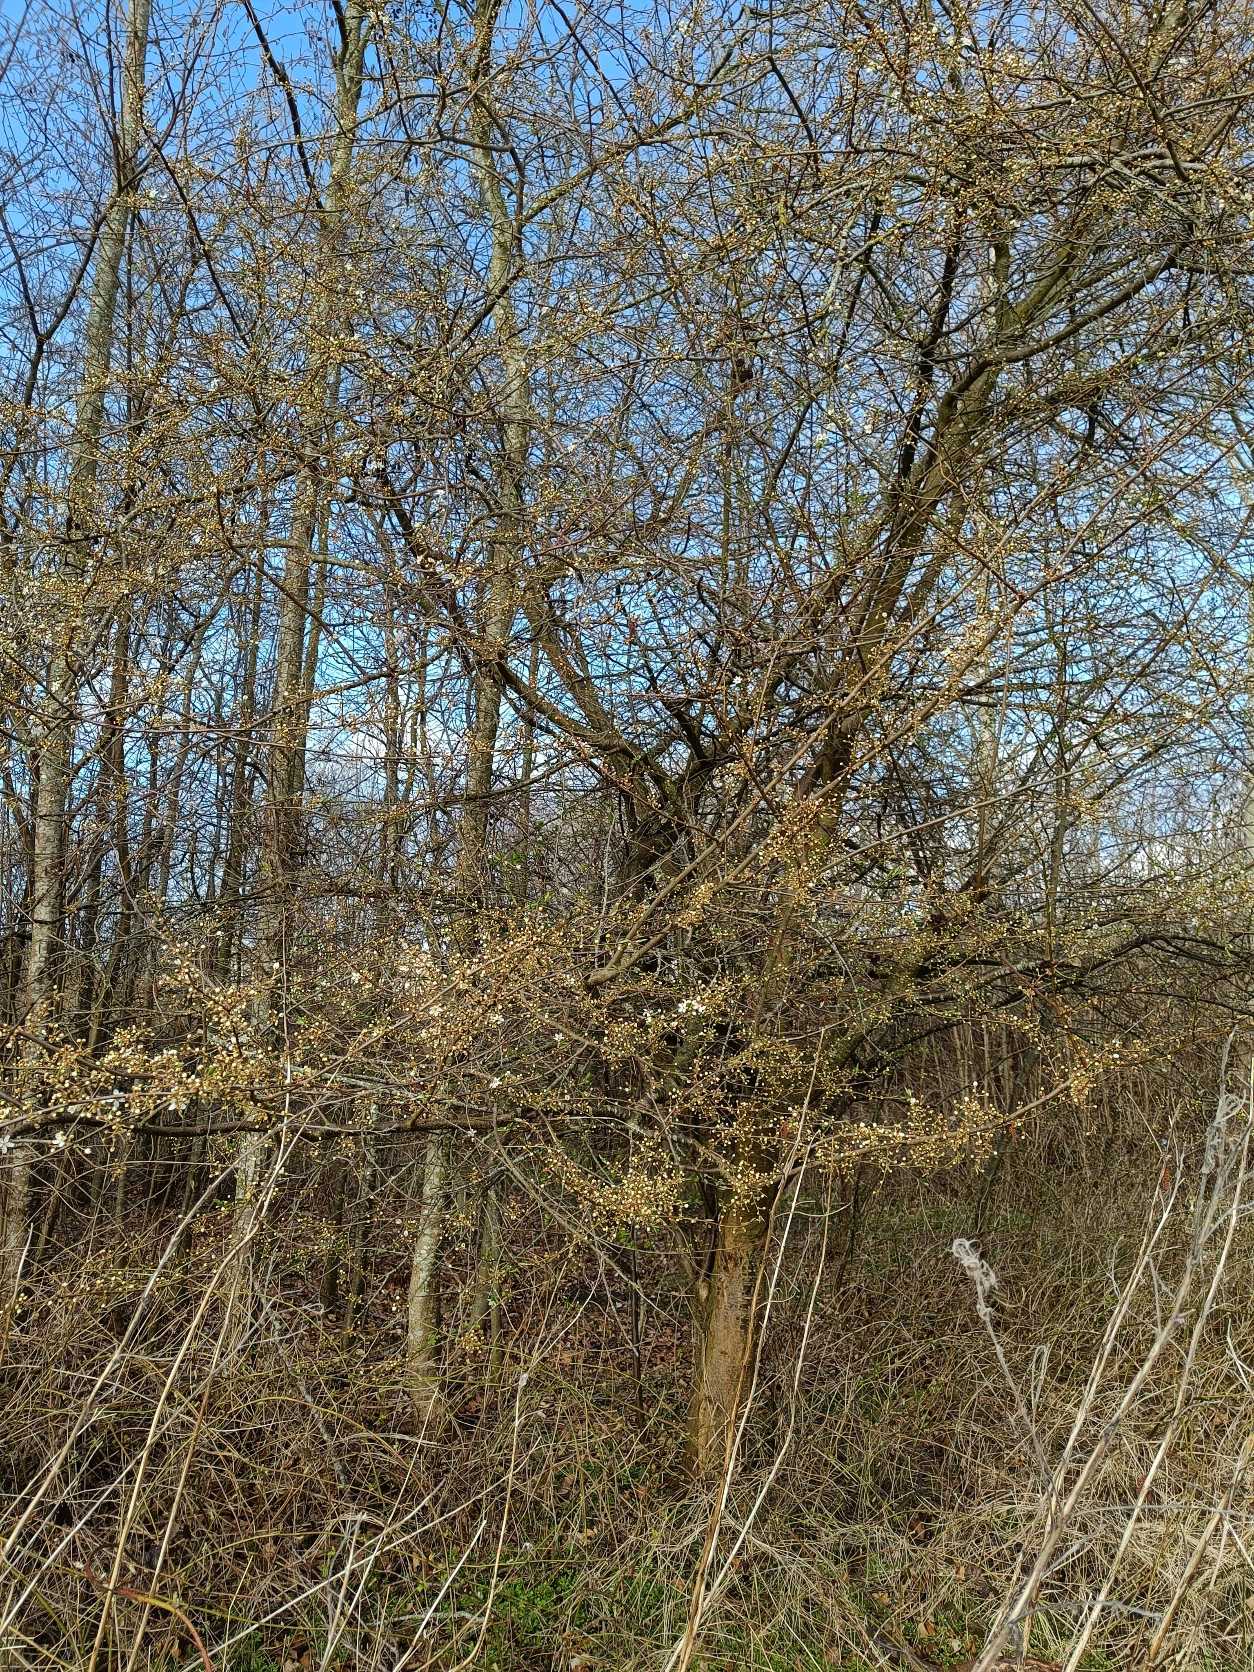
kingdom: Plantae
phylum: Tracheophyta
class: Magnoliopsida
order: Rosales
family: Rosaceae
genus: Prunus
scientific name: Prunus cerasifera
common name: Mirabel
